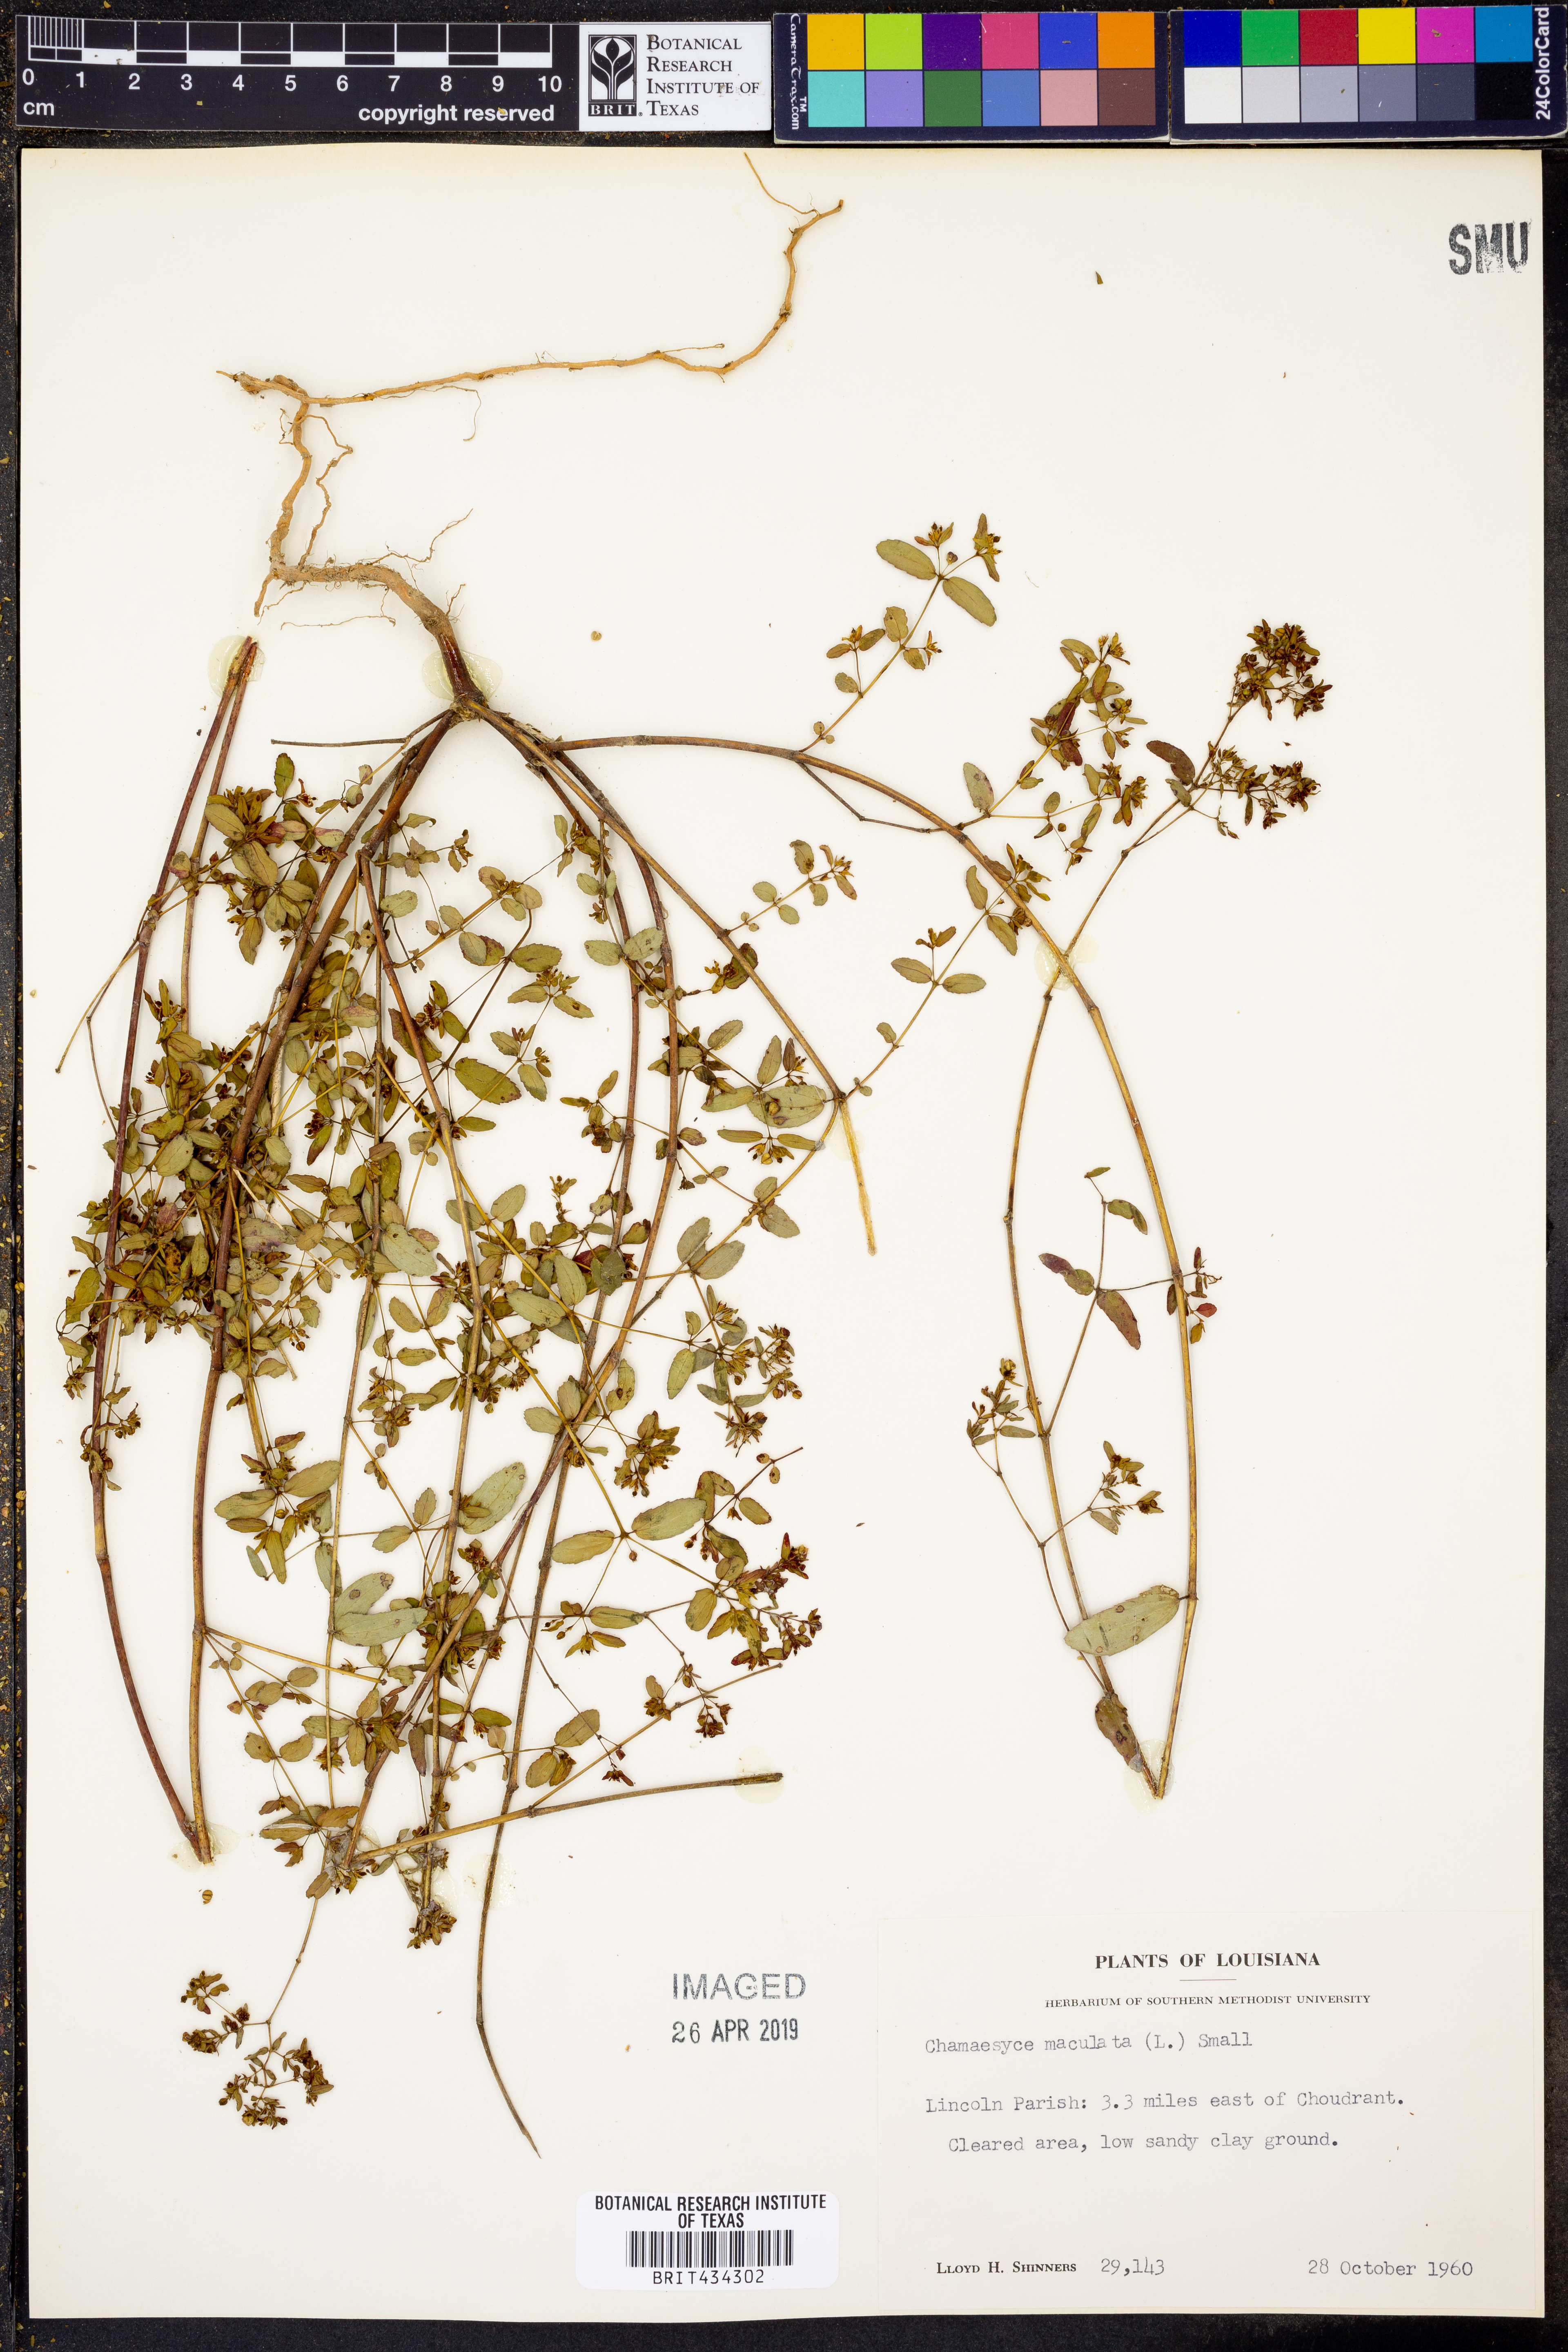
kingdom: Plantae
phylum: Tracheophyta
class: Magnoliopsida
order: Malpighiales
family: Euphorbiaceae
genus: Euphorbia
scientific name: Euphorbia maculata
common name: Spotted spurge
